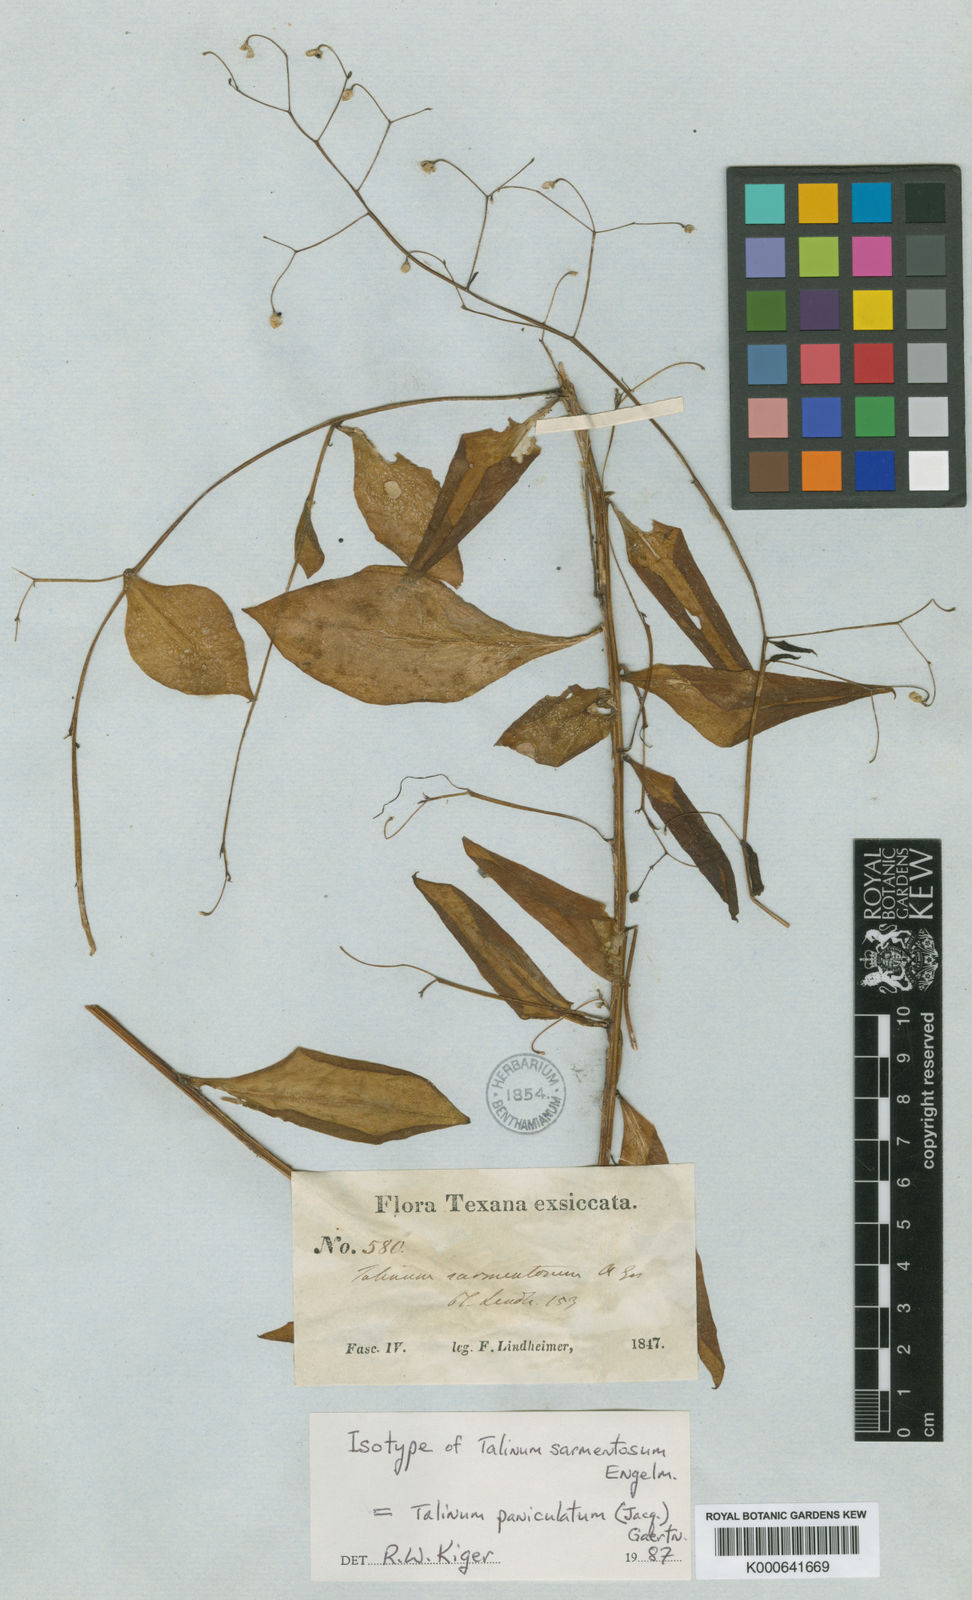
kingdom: Plantae
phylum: Tracheophyta
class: Magnoliopsida
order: Caryophyllales
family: Talinaceae
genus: Talinum
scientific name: Talinum paniculatum
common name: Jewels of opar
